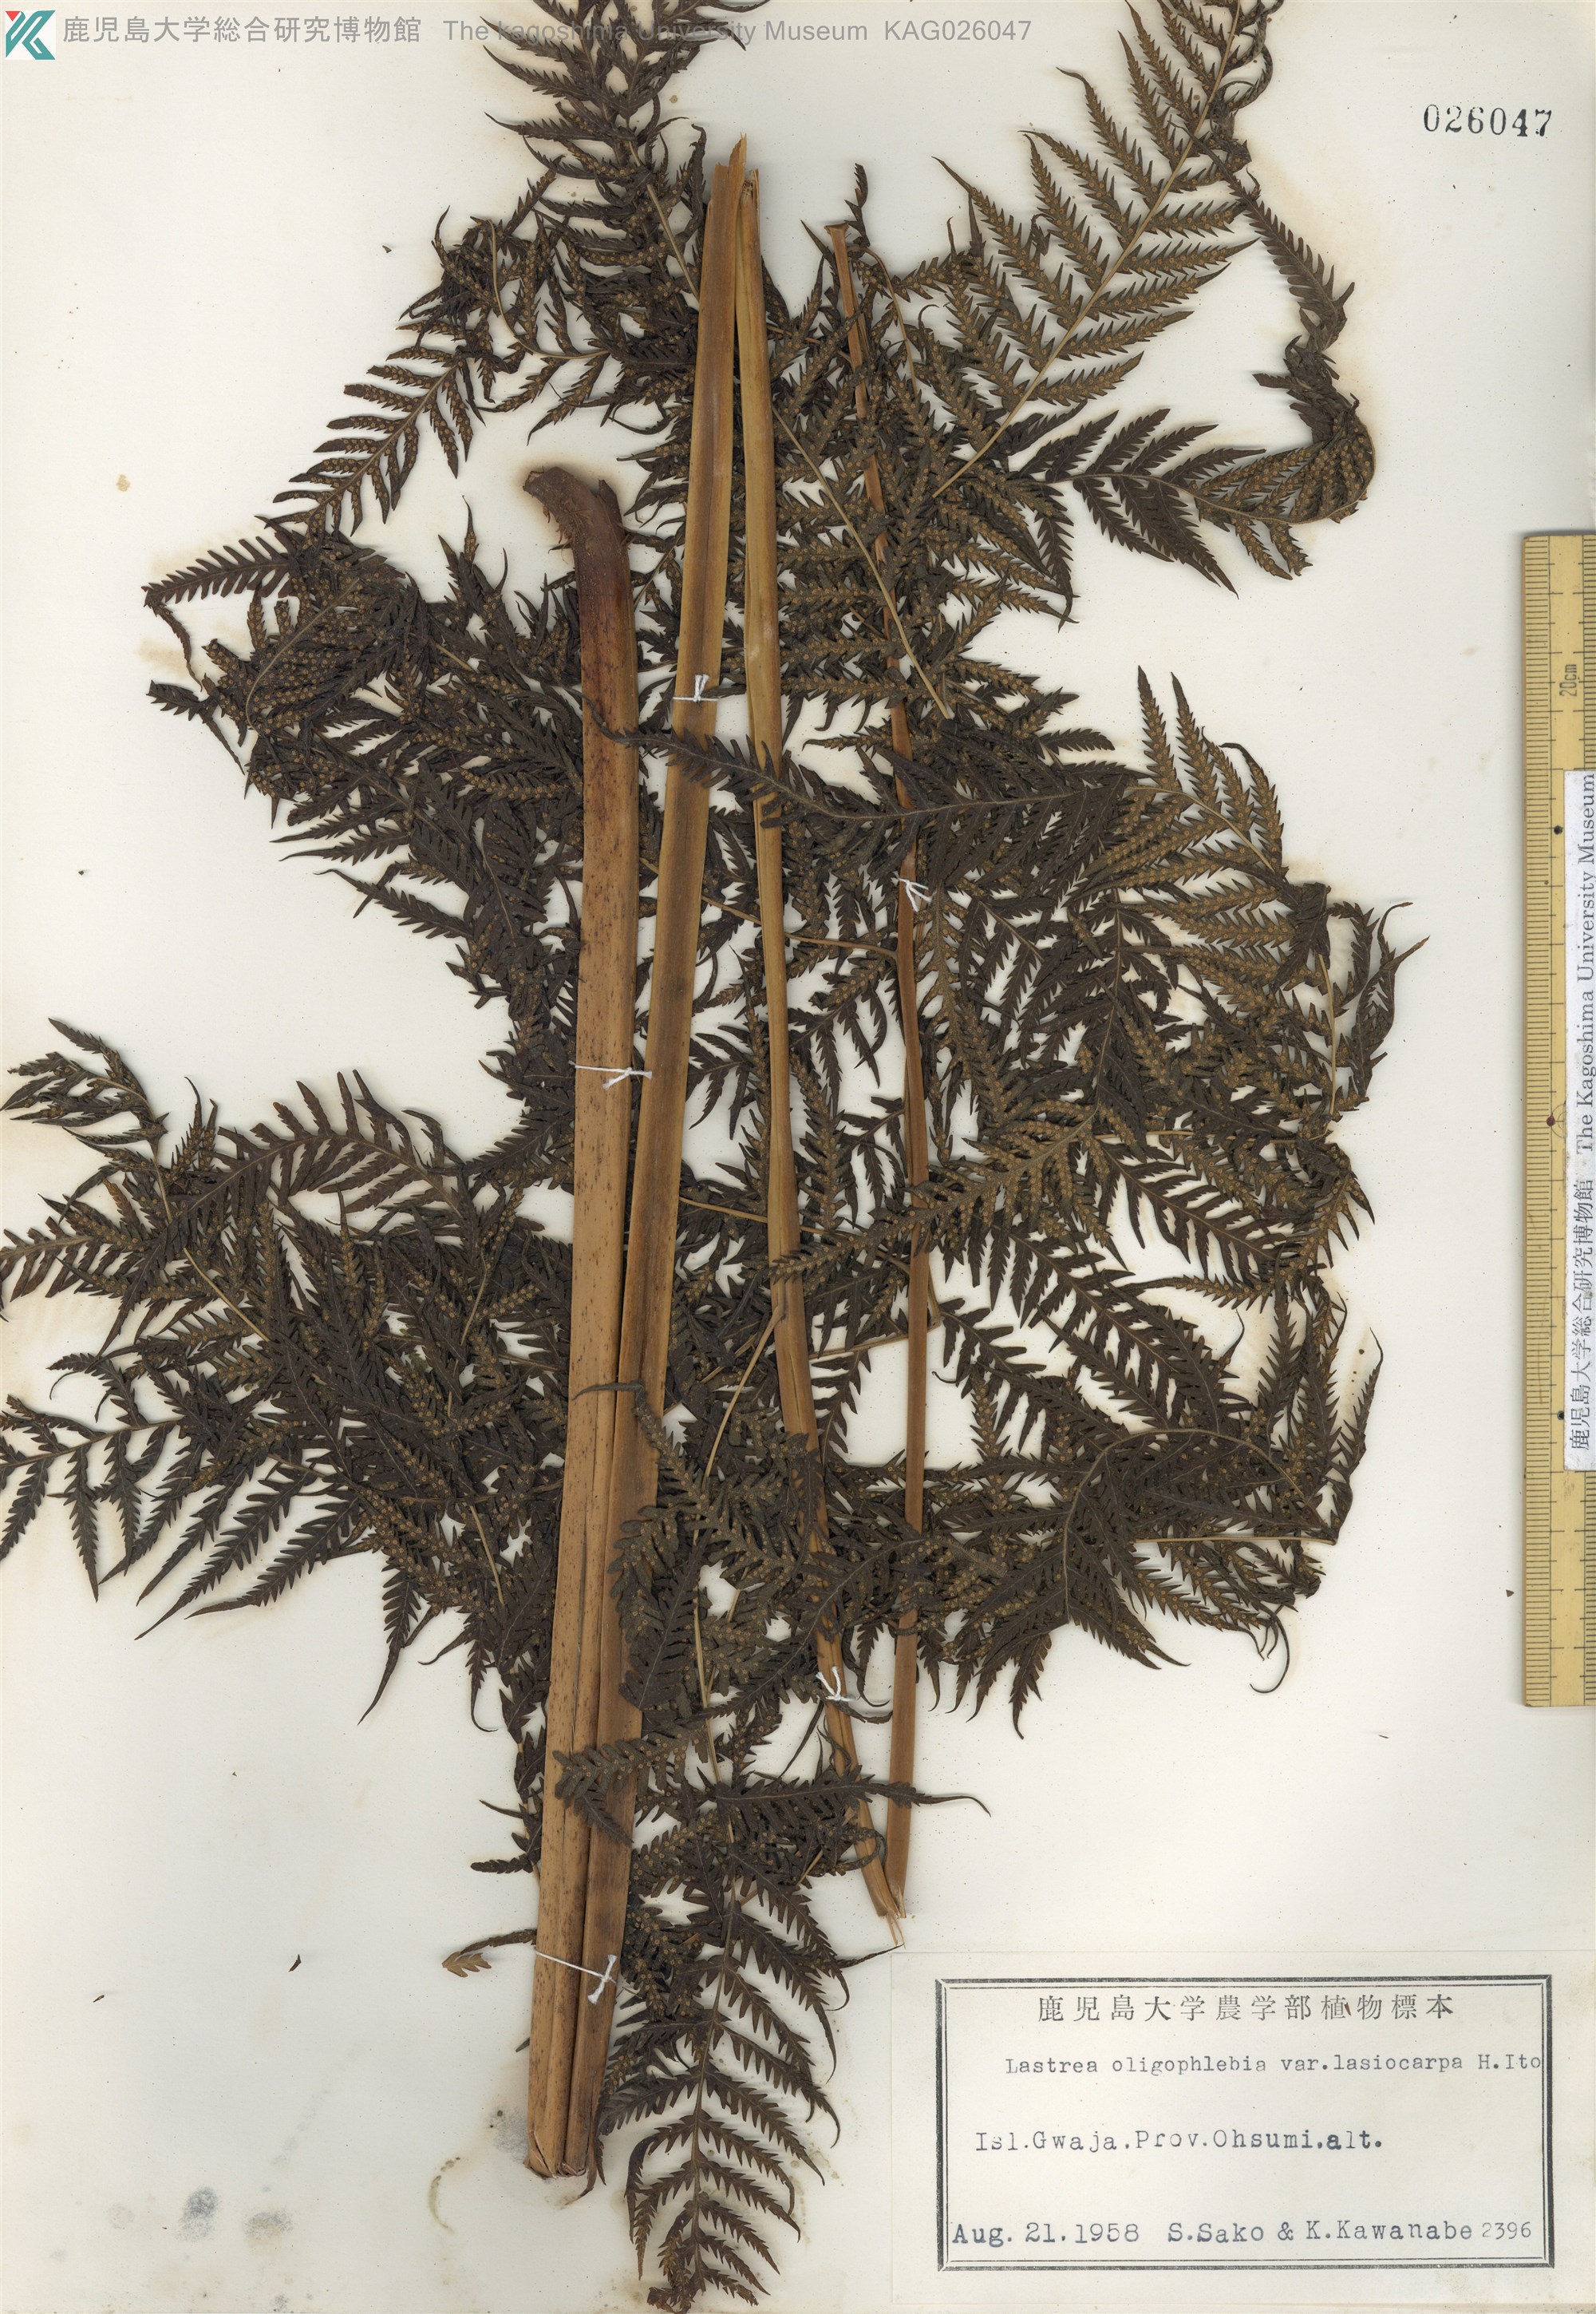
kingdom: Plantae
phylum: Tracheophyta
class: Polypodiopsida
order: Polypodiales
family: Thelypteridaceae
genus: Macrothelypteris
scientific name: Macrothelypteris oligophlebia
